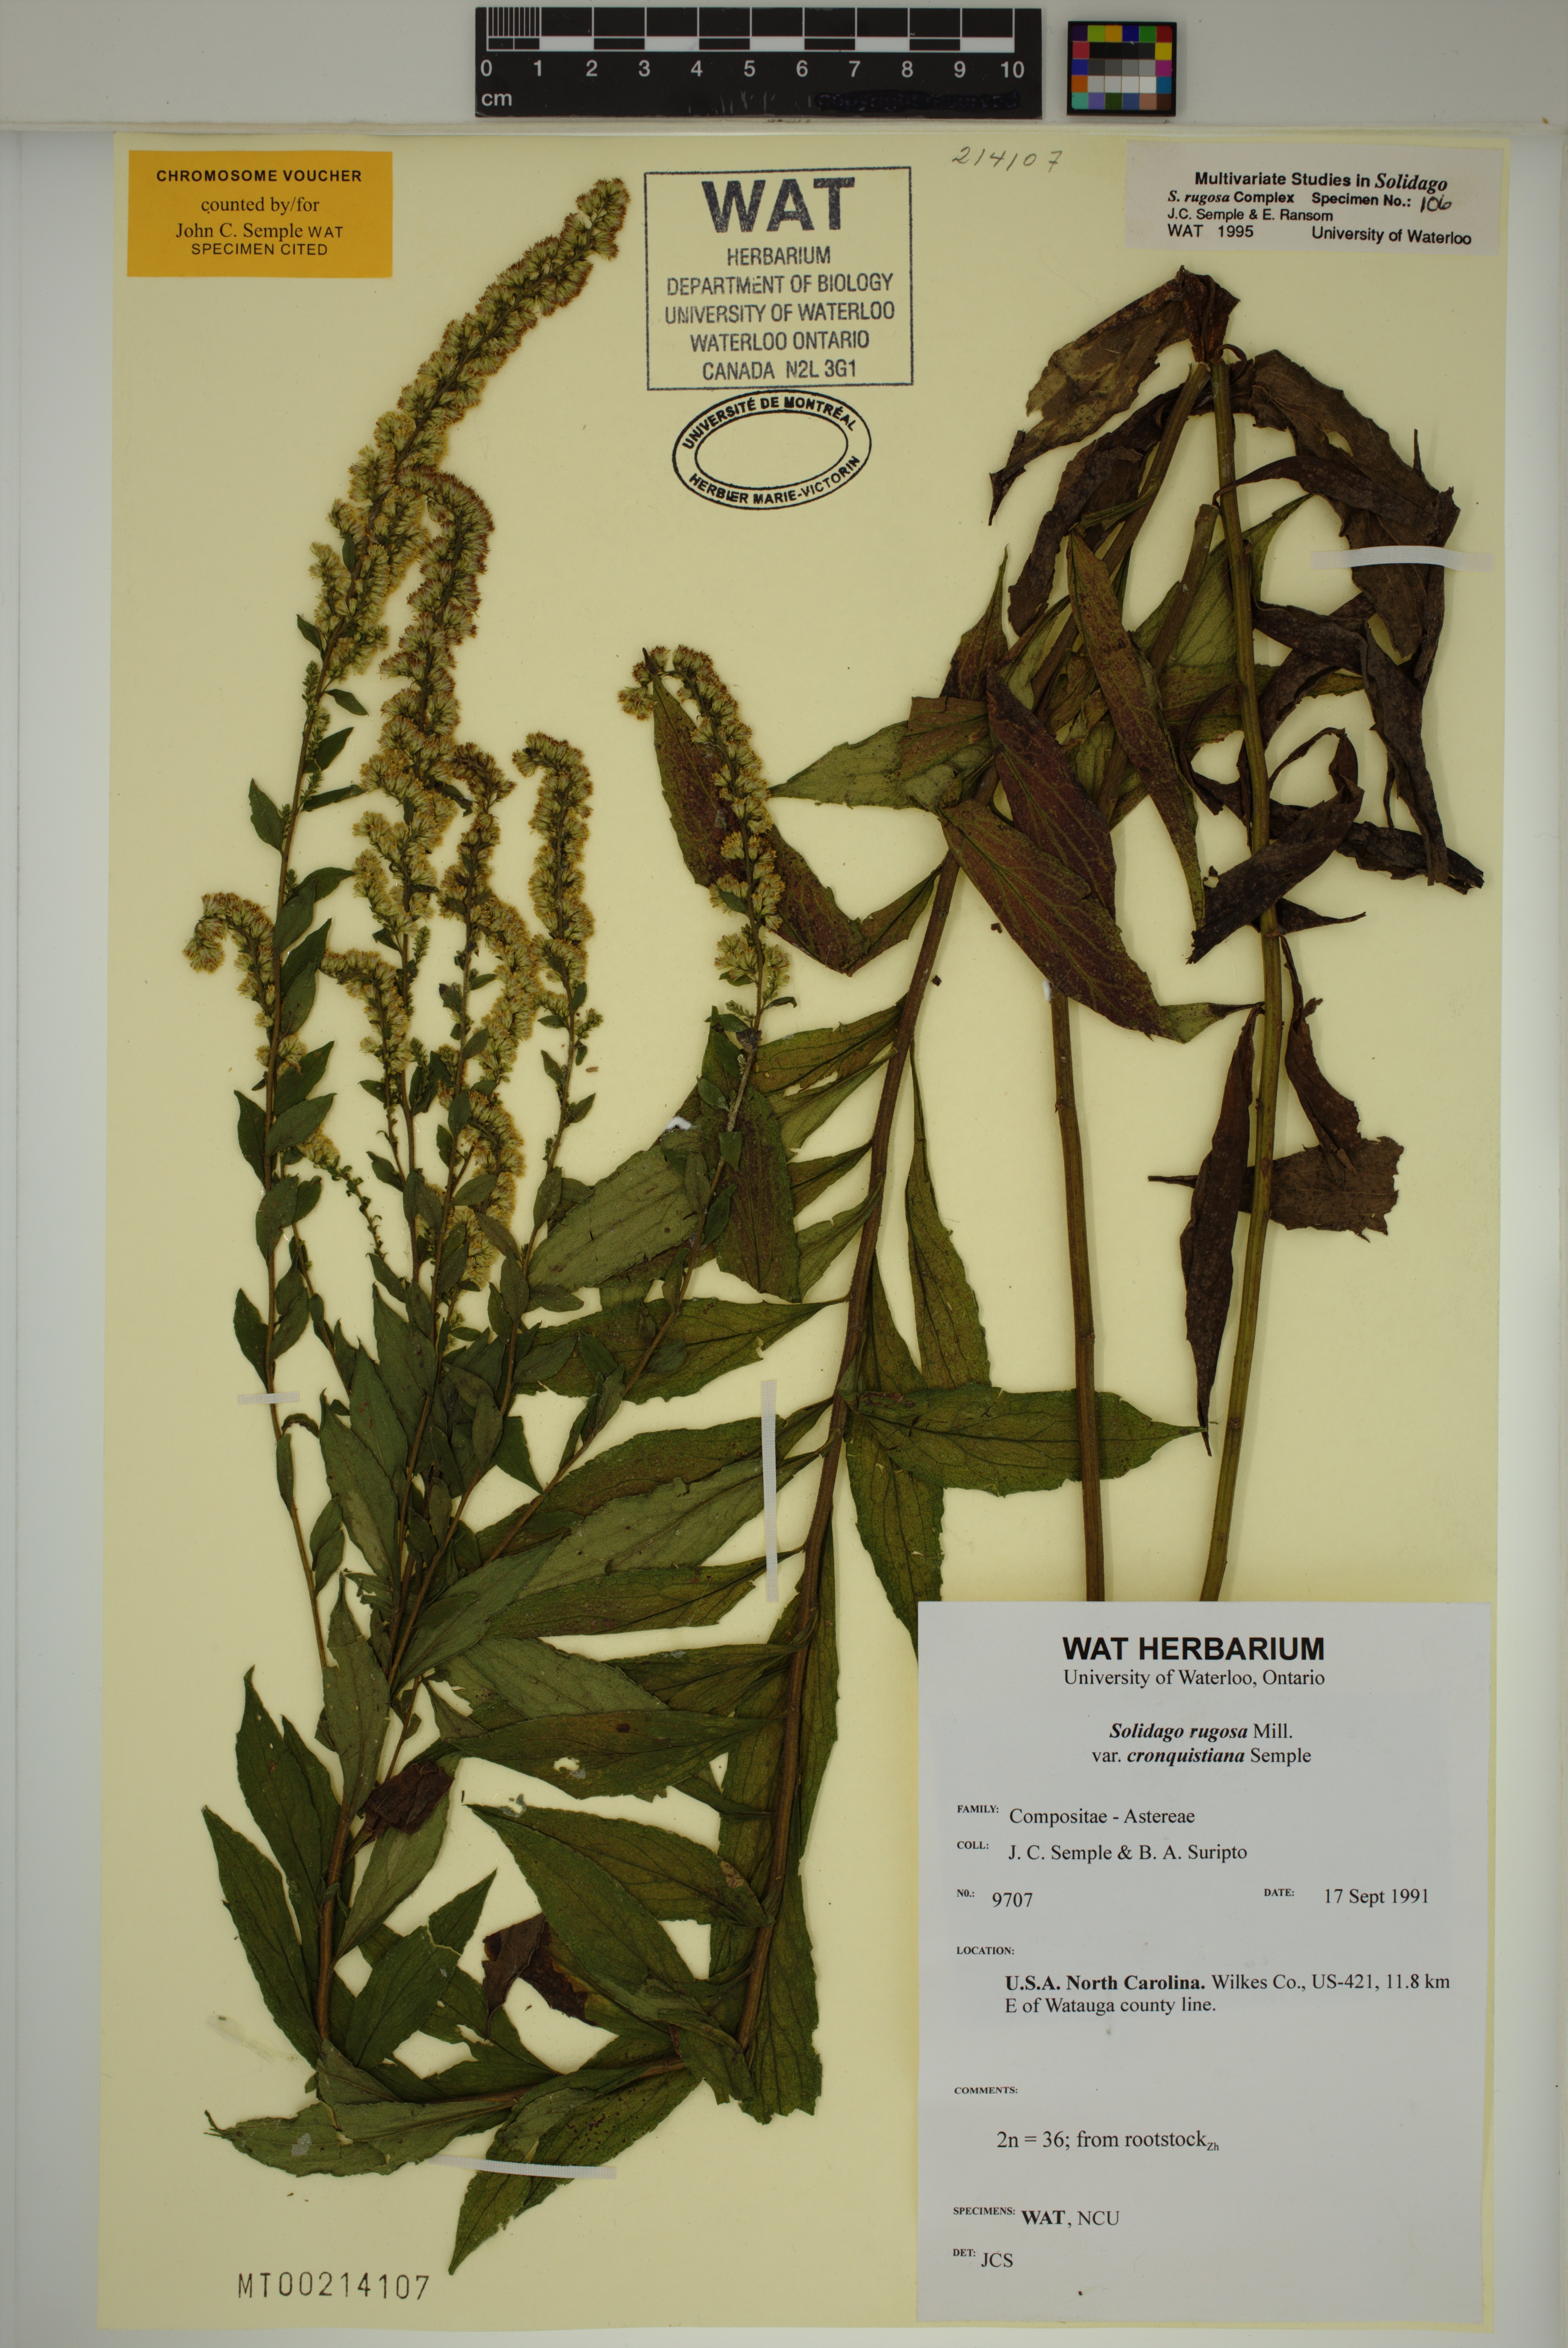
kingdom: Plantae
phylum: Tracheophyta
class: Magnoliopsida
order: Asterales
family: Asteraceae
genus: Solidago
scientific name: Solidago rugosa
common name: Rough-stemmed goldenrod
